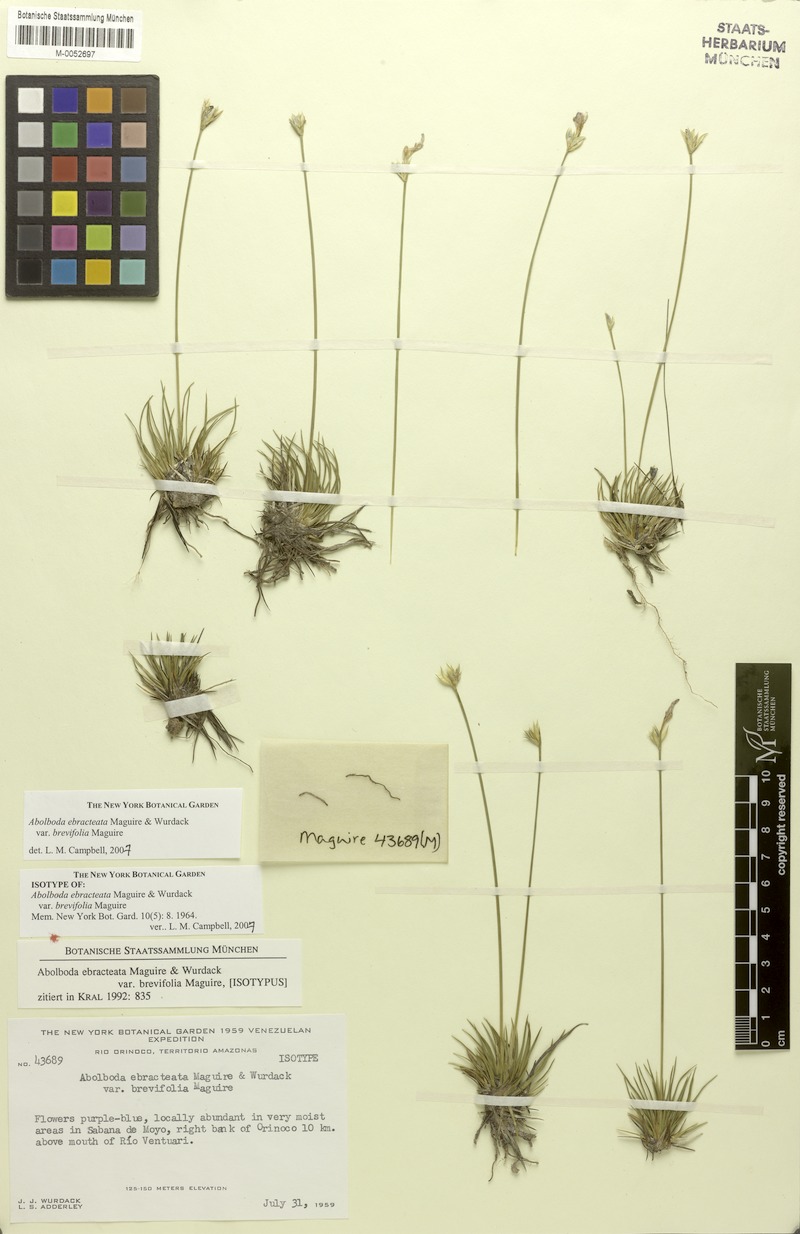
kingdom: Plantae
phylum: Tracheophyta
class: Liliopsida
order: Poales
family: Xyridaceae
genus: Abolboda
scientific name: Abolboda ebracteata
